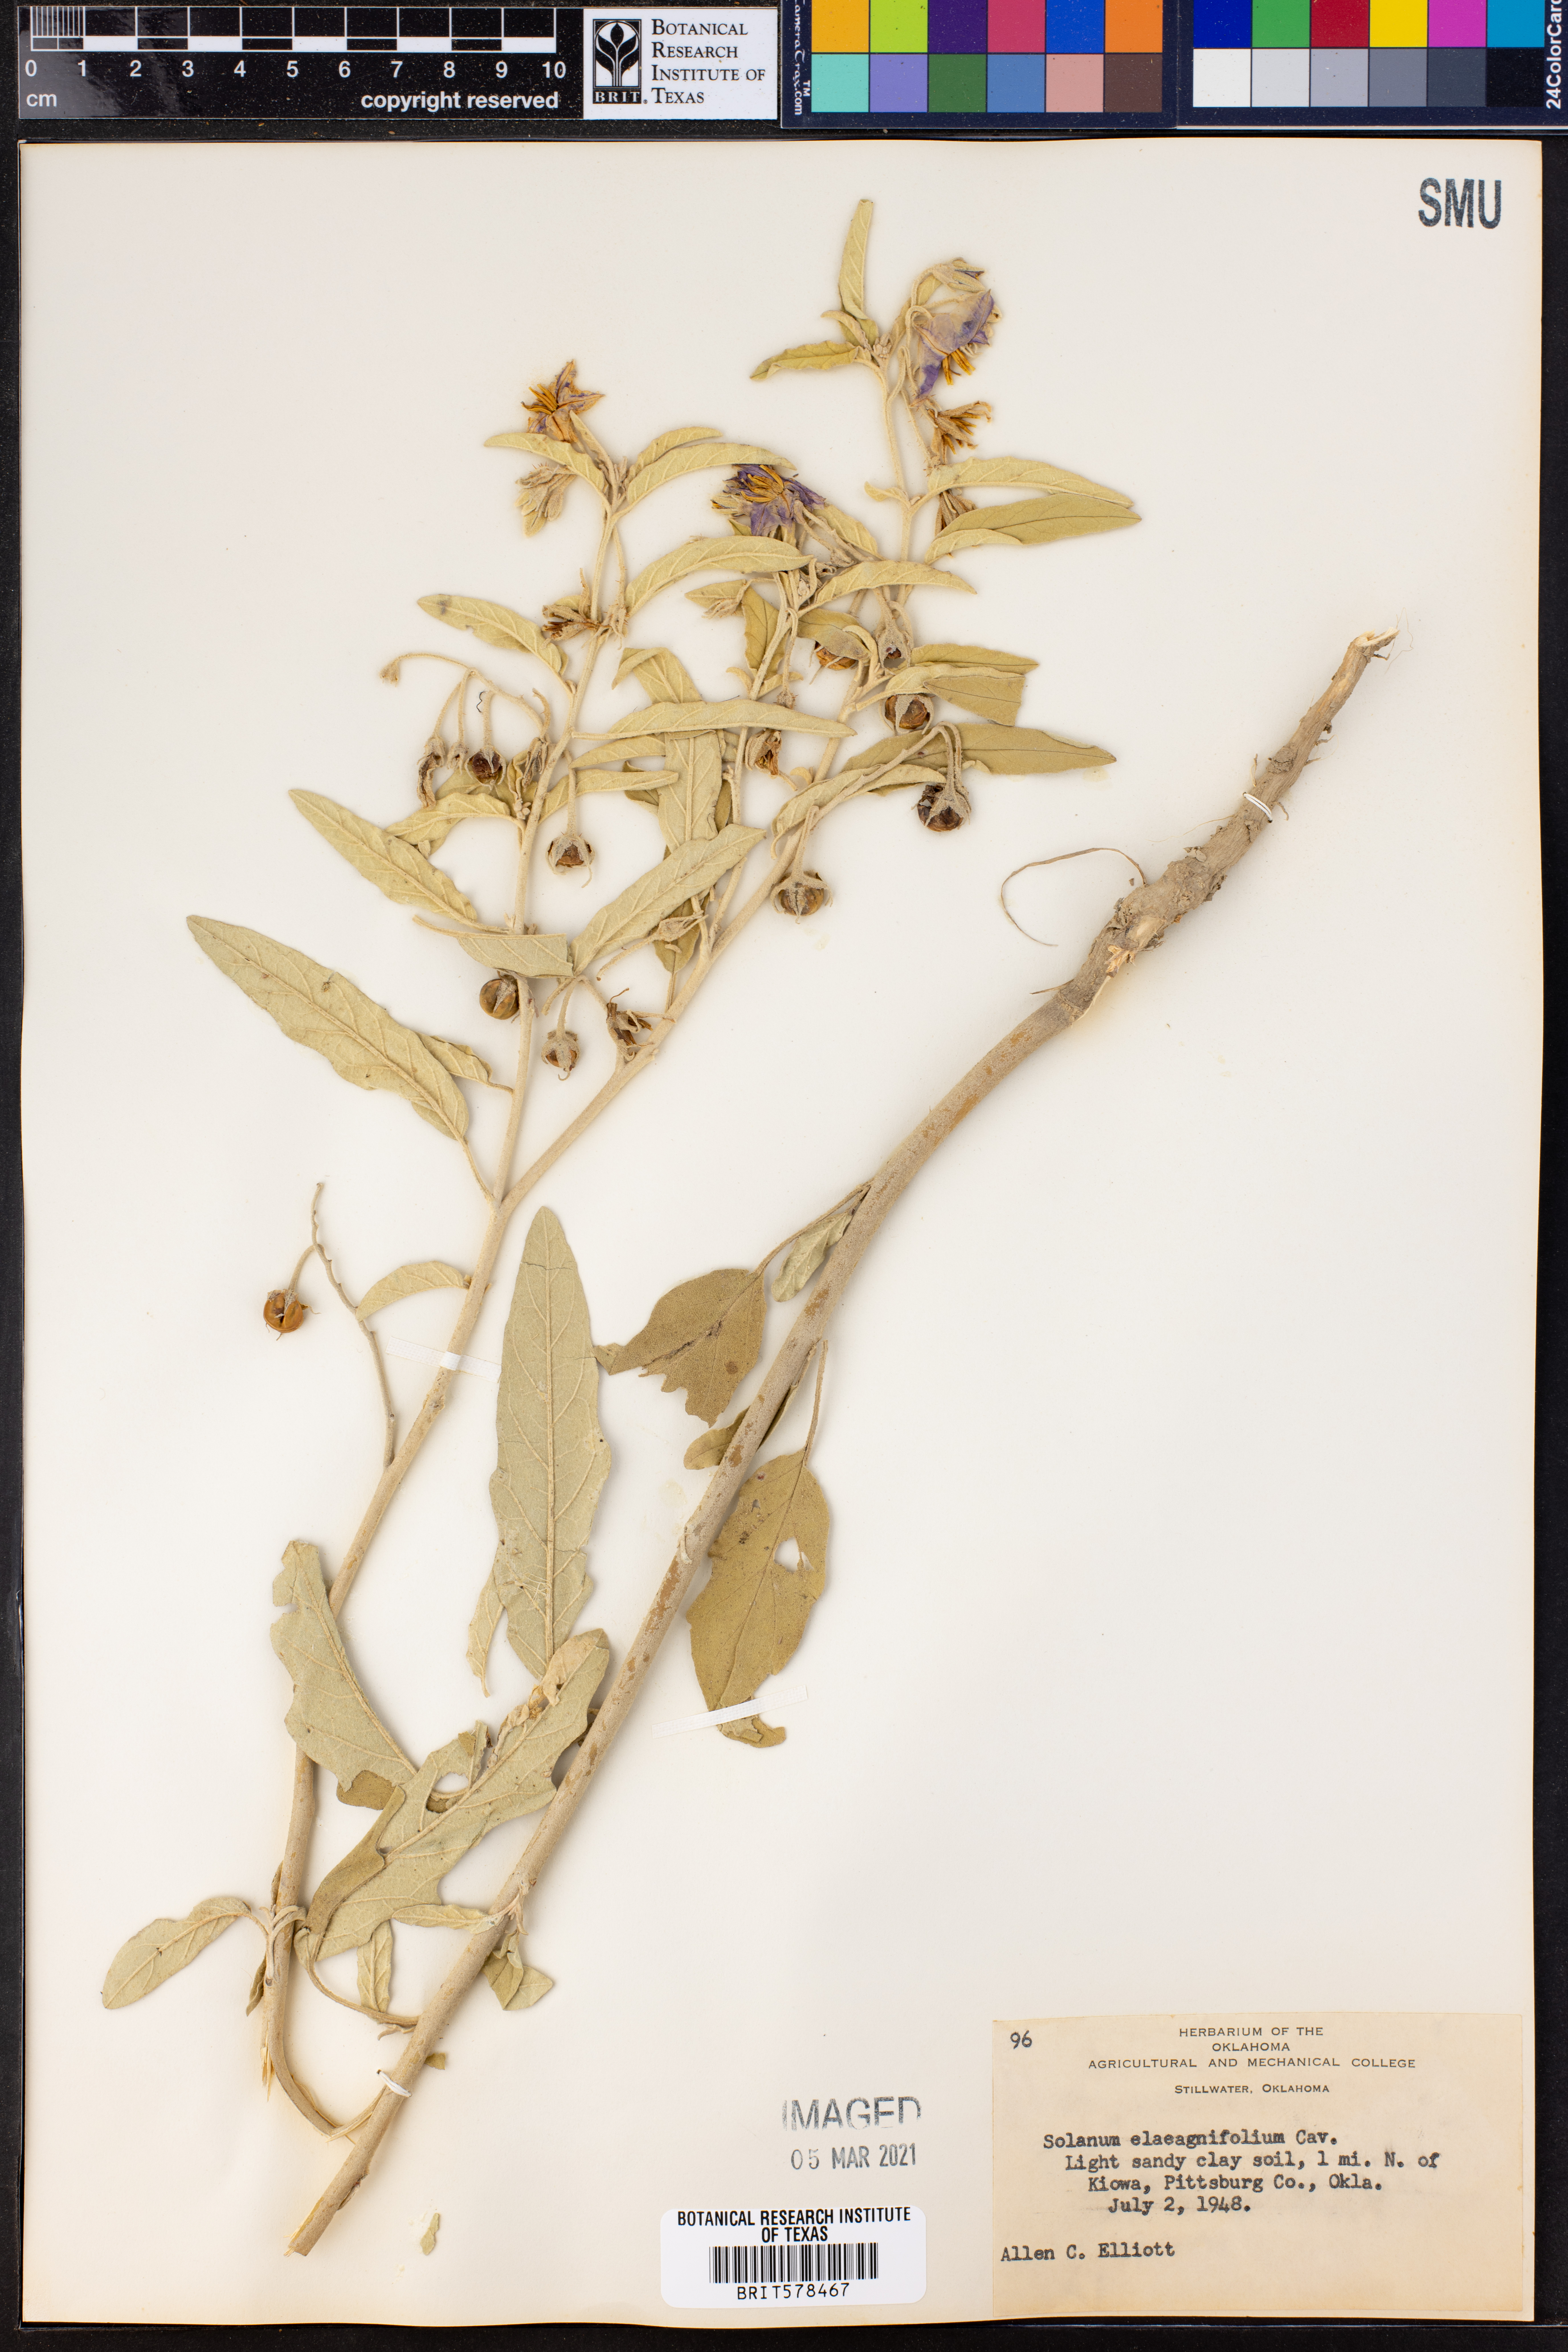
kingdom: Plantae
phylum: Tracheophyta
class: Magnoliopsida
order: Solanales
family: Solanaceae
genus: Solanum
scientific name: Solanum elaeagnifolium
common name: Silverleaf nightshade
